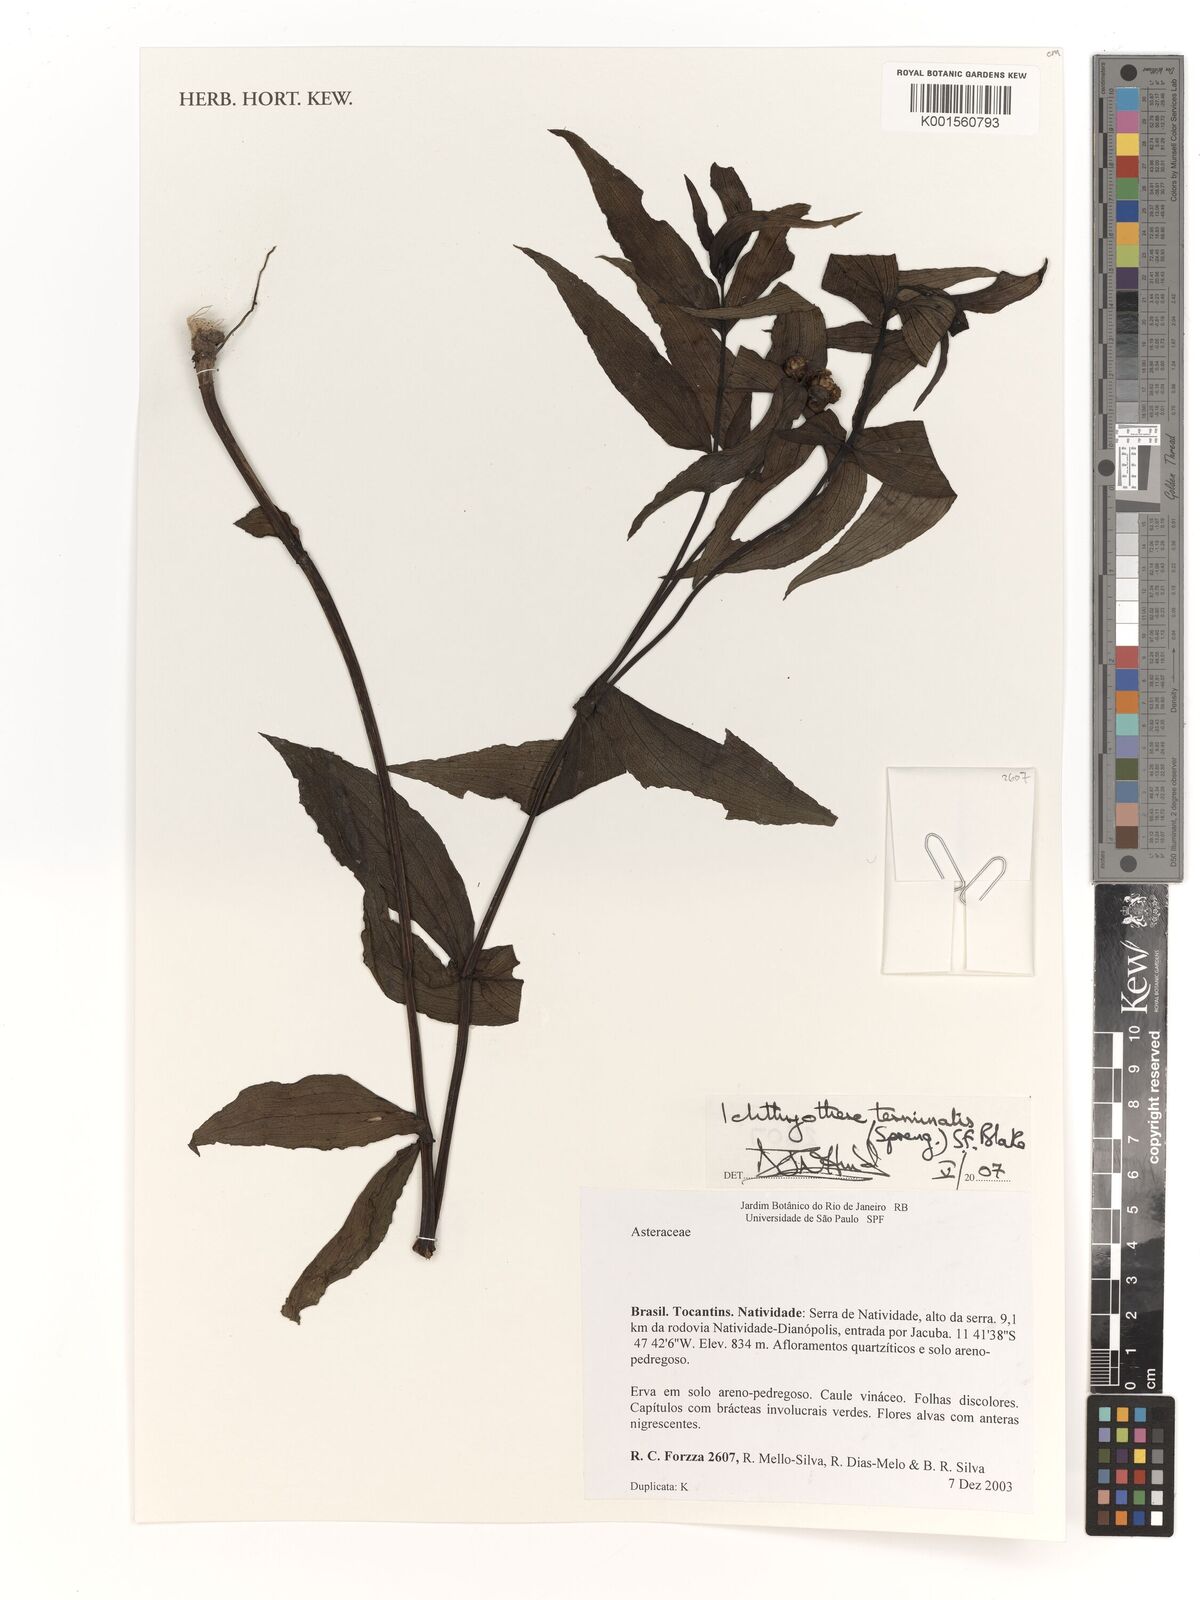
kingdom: Plantae
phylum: Tracheophyta
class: Magnoliopsida
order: Asterales
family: Asteraceae
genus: Ichthyothere
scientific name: Ichthyothere terminalis
